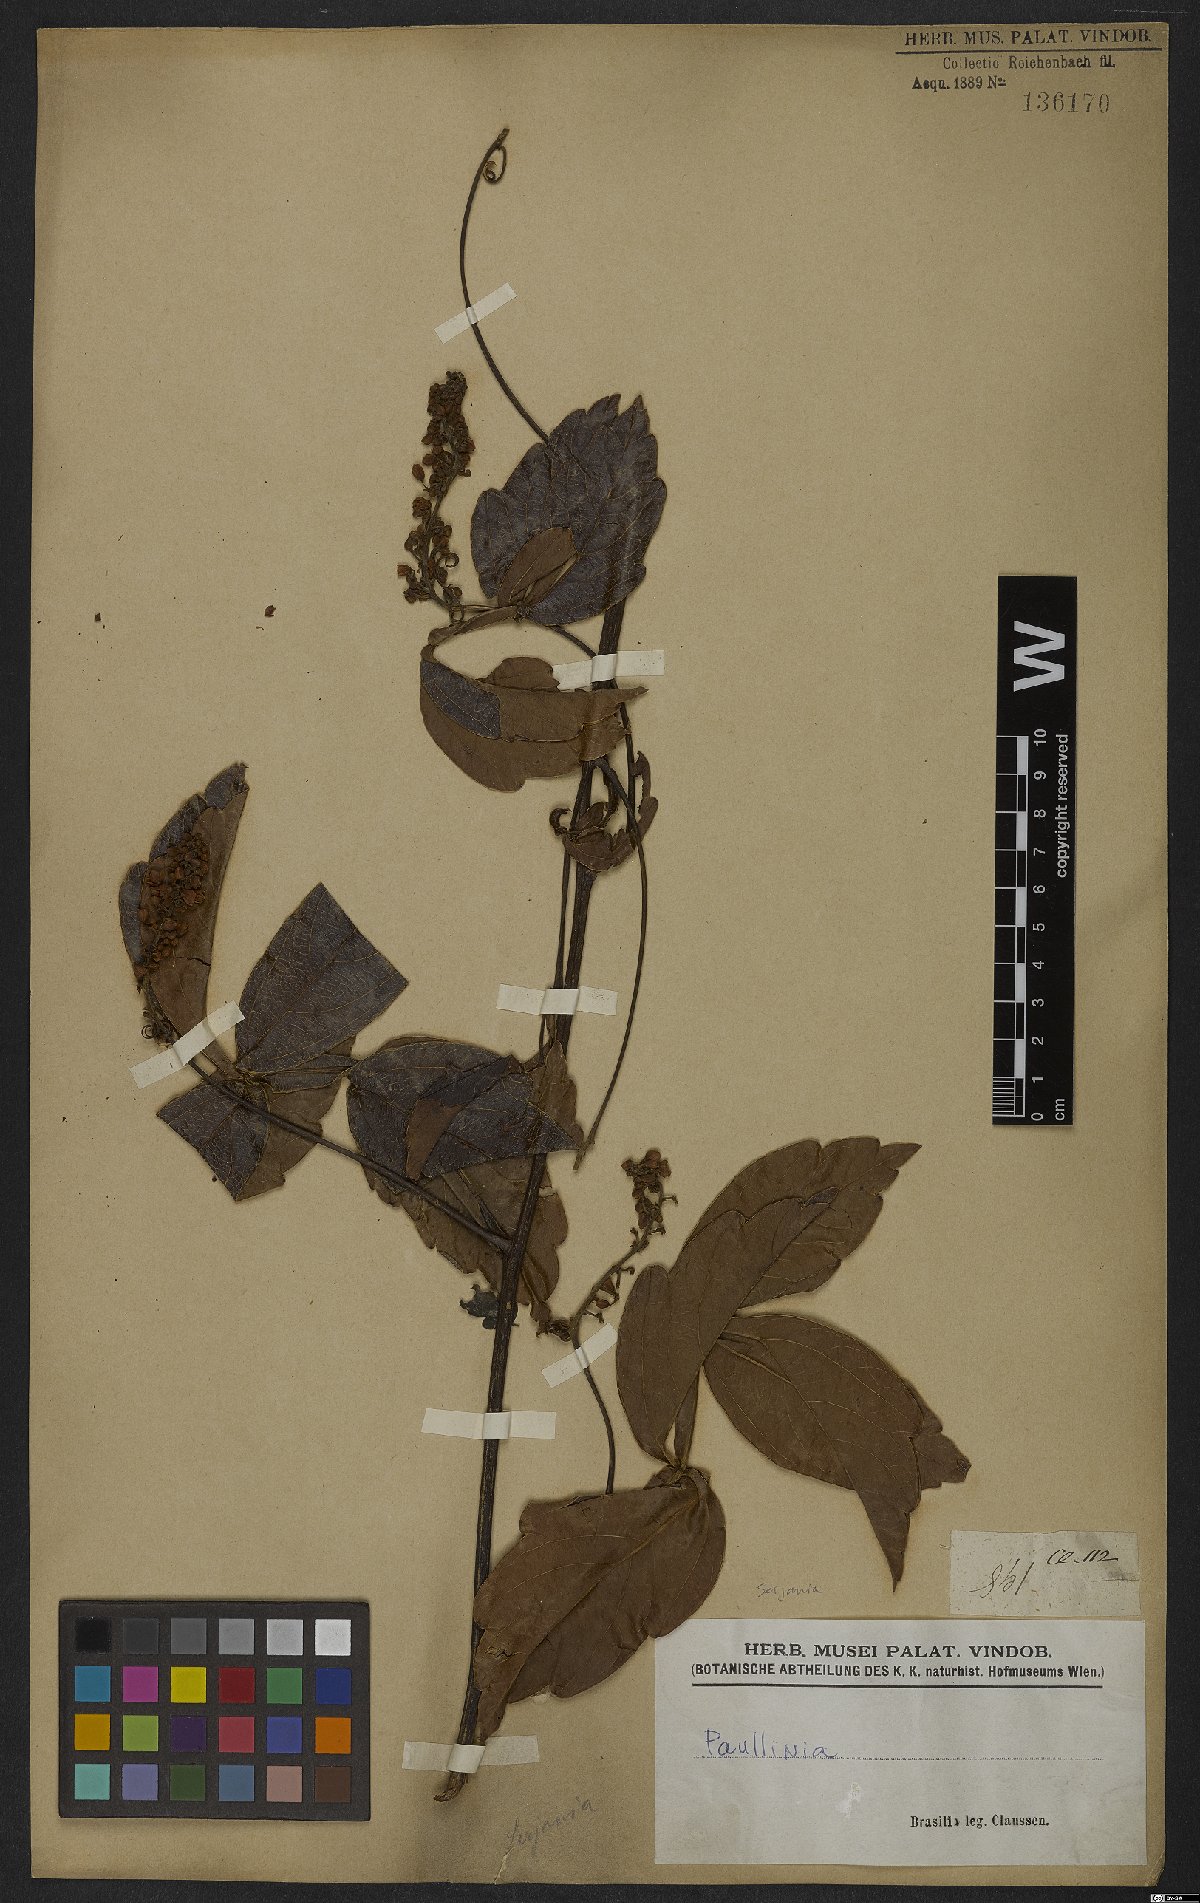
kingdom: Plantae
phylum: Tracheophyta
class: Magnoliopsida
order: Sapindales
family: Sapindaceae
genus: Serjania
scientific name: Serjania
